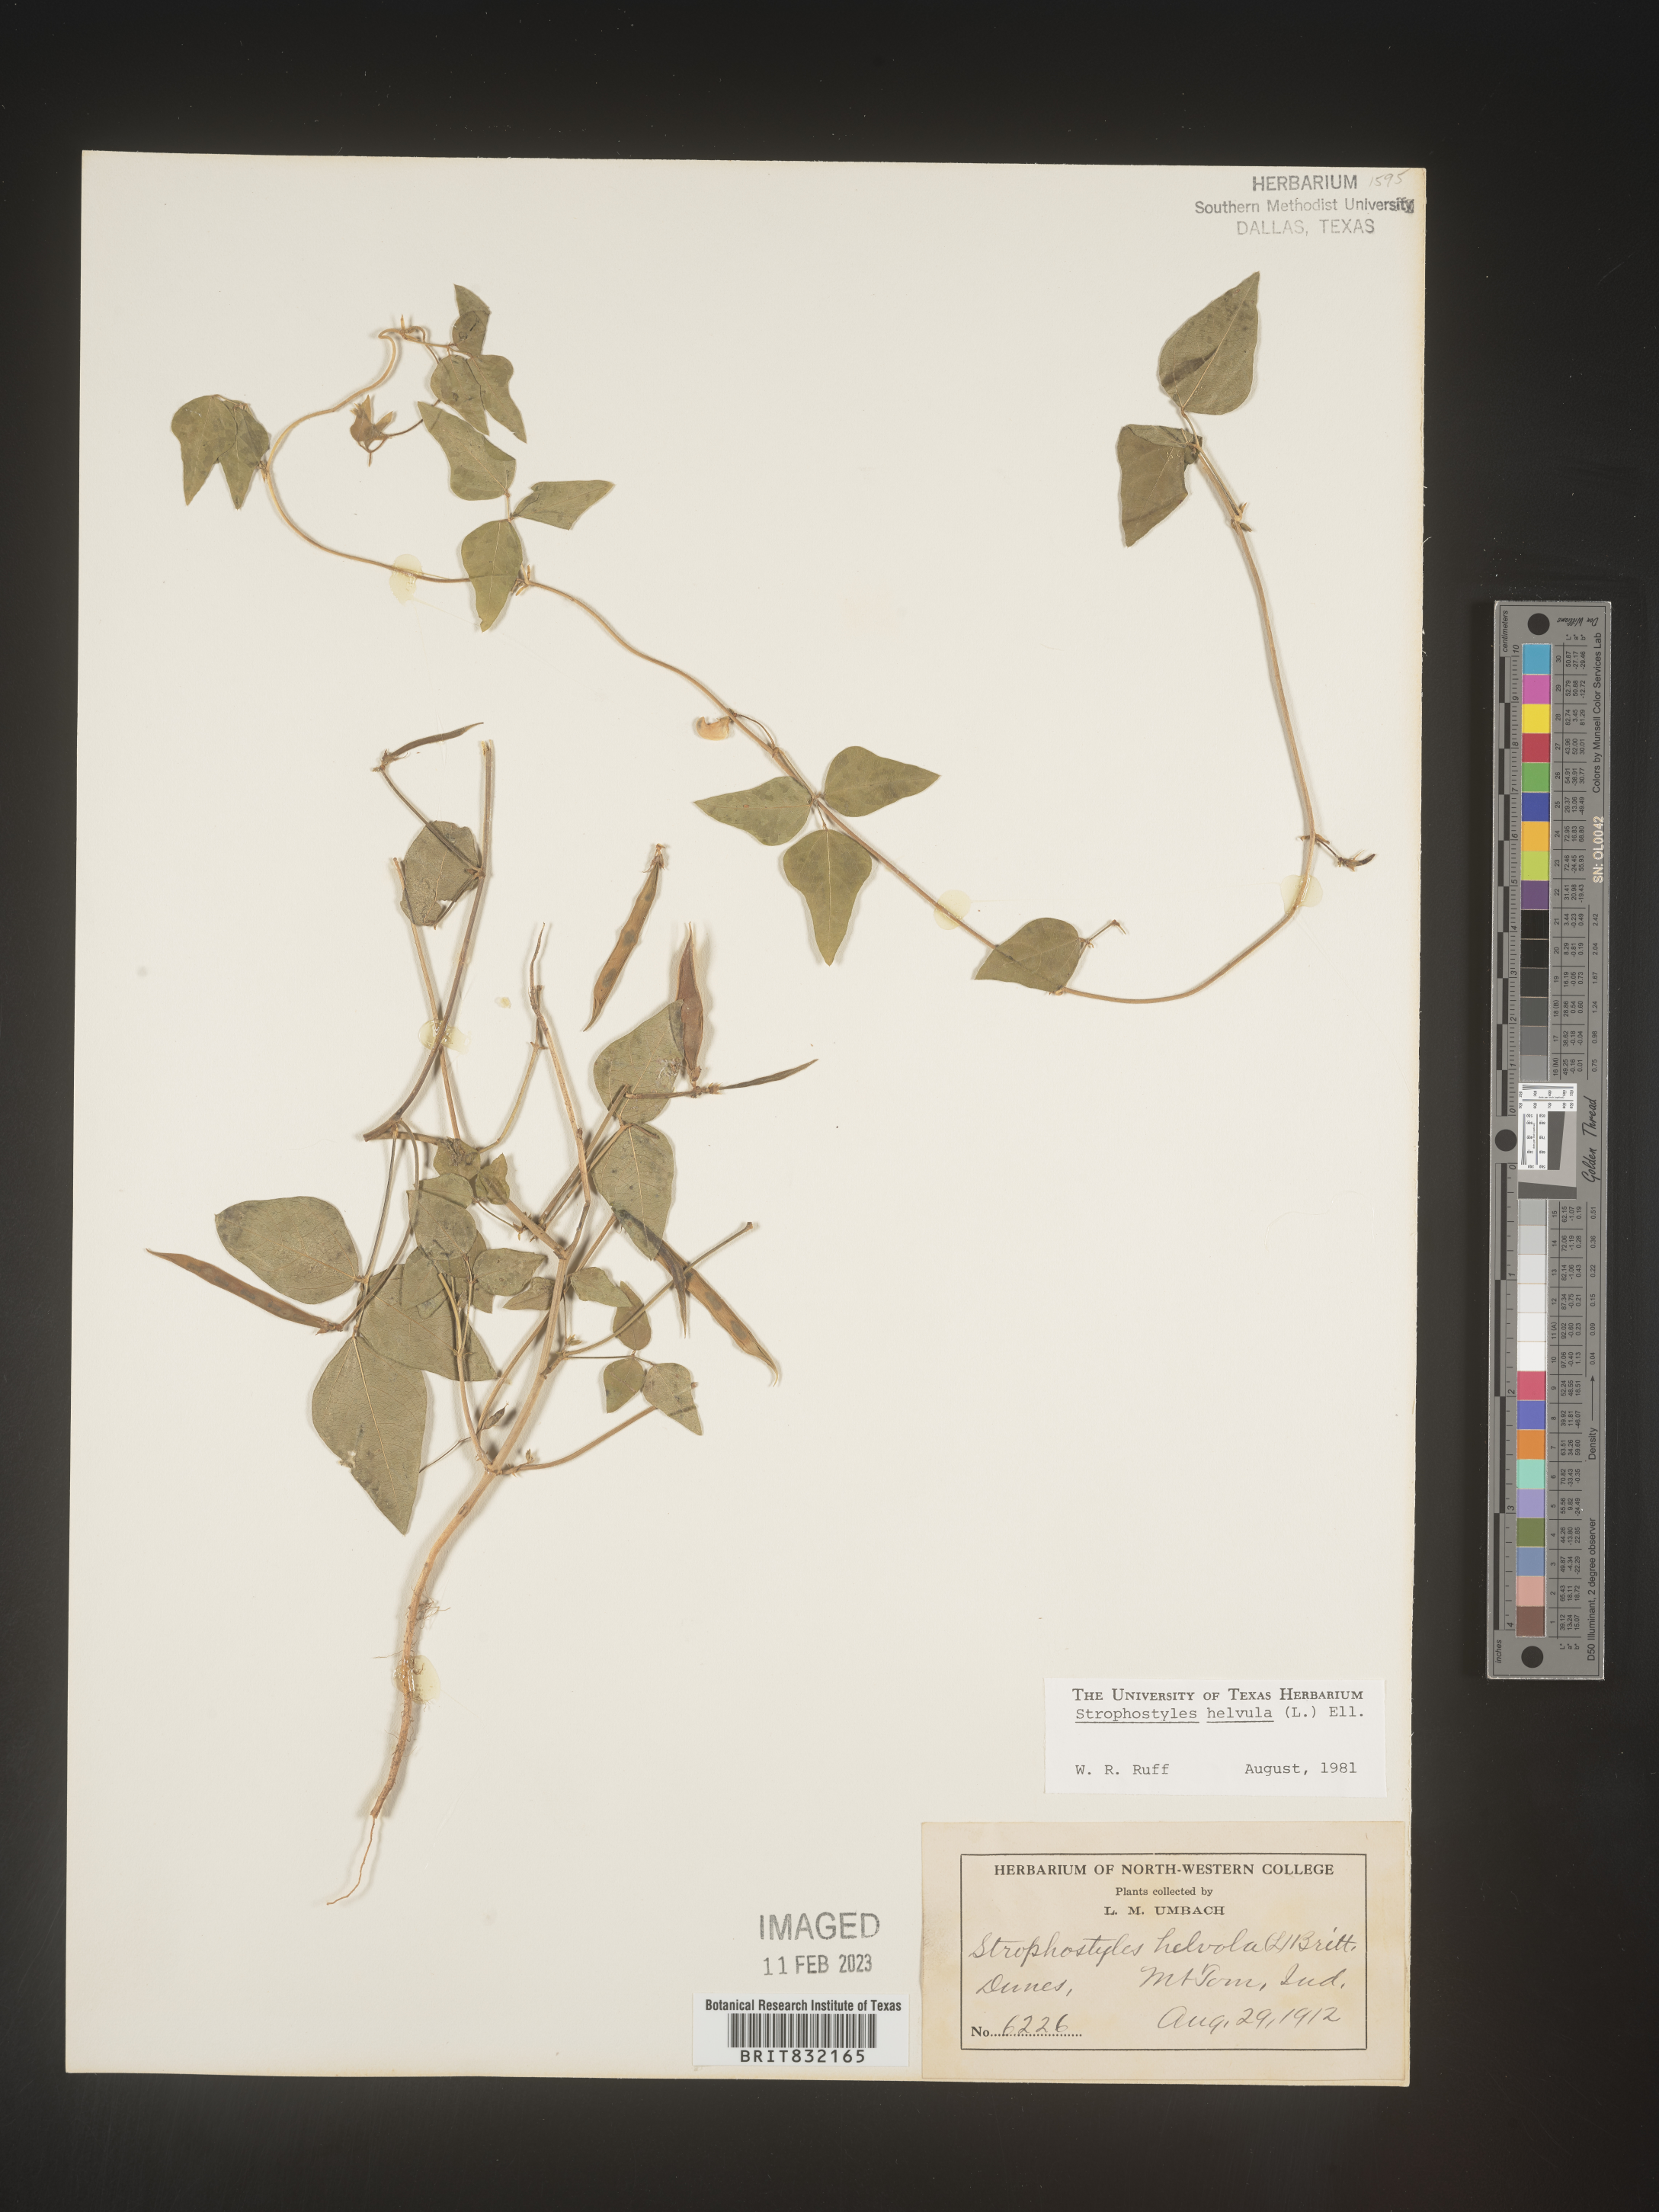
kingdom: Plantae
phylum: Tracheophyta
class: Magnoliopsida
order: Fabales
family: Fabaceae
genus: Strophostyles
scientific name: Strophostyles helvola
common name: Trailing wild bean
